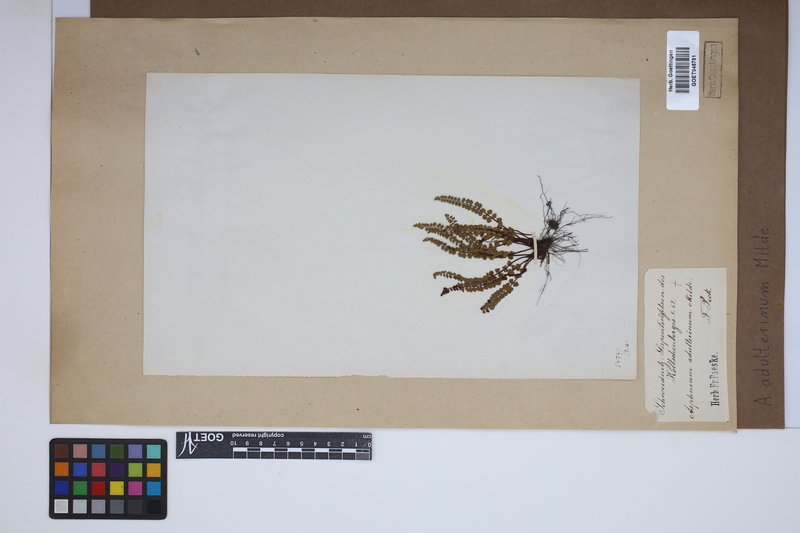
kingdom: Plantae
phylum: Tracheophyta
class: Polypodiopsida
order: Polypodiales
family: Aspleniaceae
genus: Asplenium
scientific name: Asplenium adulterinum
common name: Adulterated spleenwort
